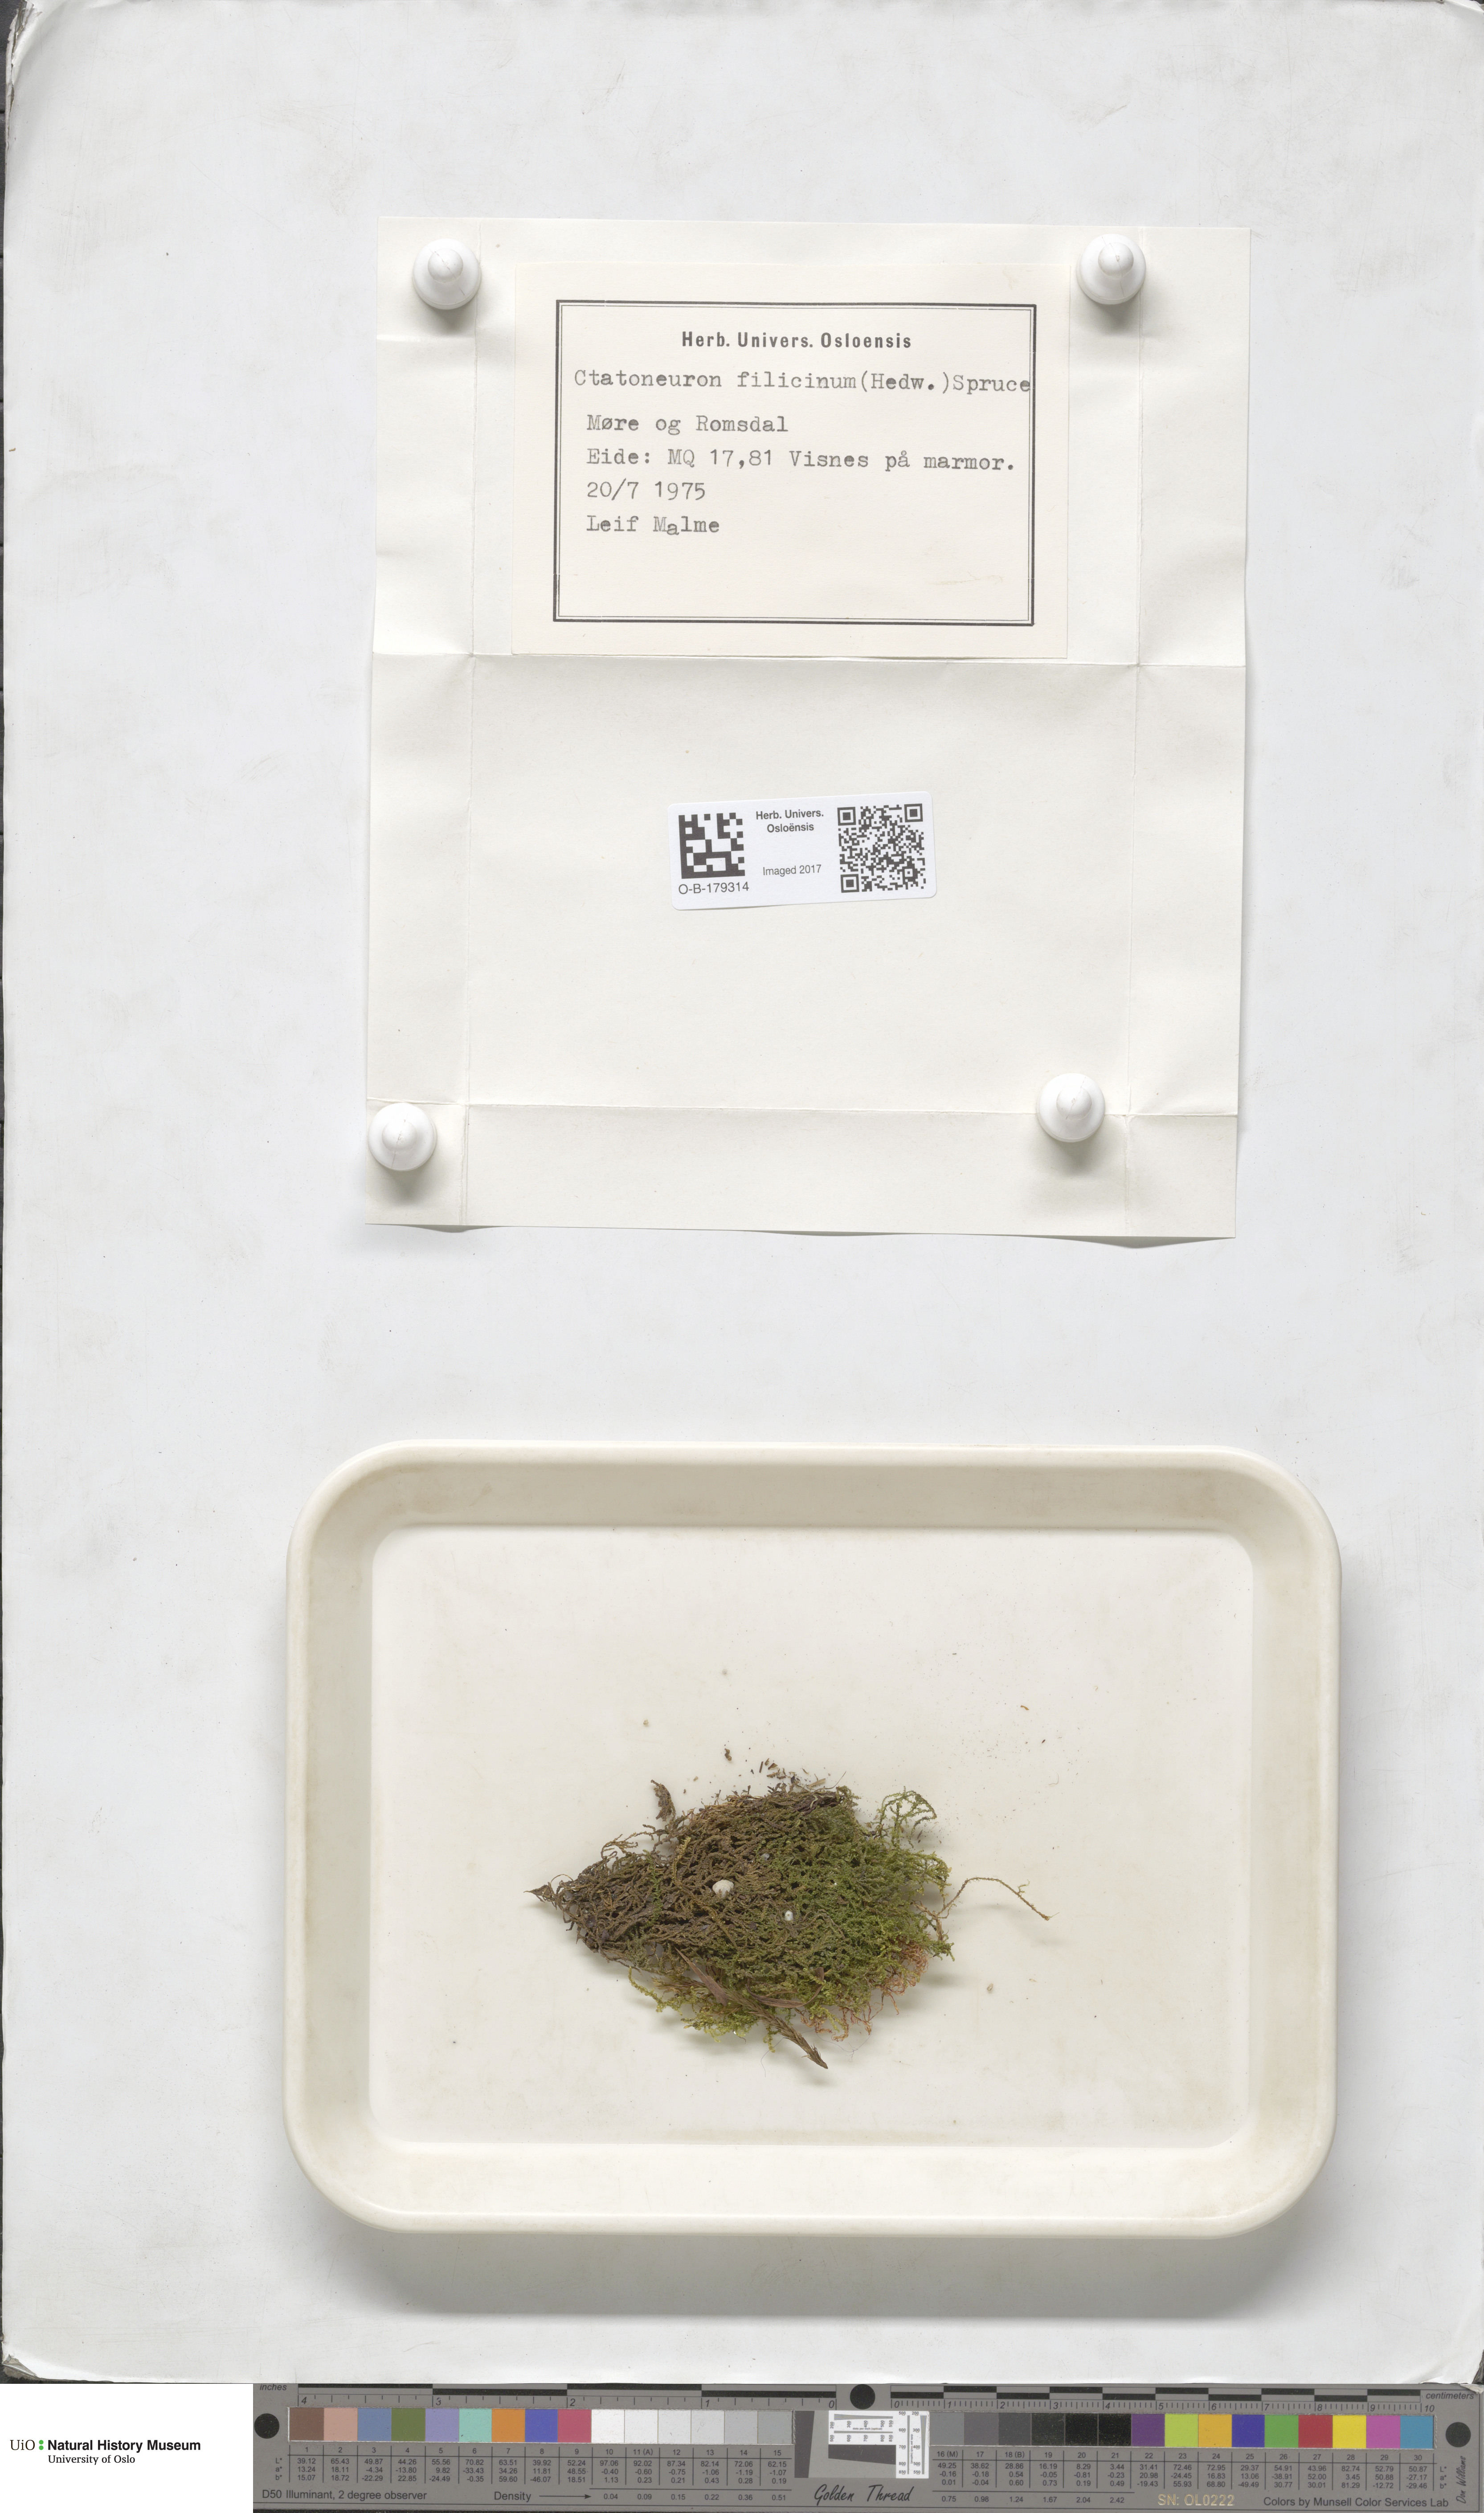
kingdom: Plantae
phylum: Bryophyta
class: Bryopsida
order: Hypnales
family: Amblystegiaceae
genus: Cratoneuron
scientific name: Cratoneuron filicinum
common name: Fern-leaved hook moss
